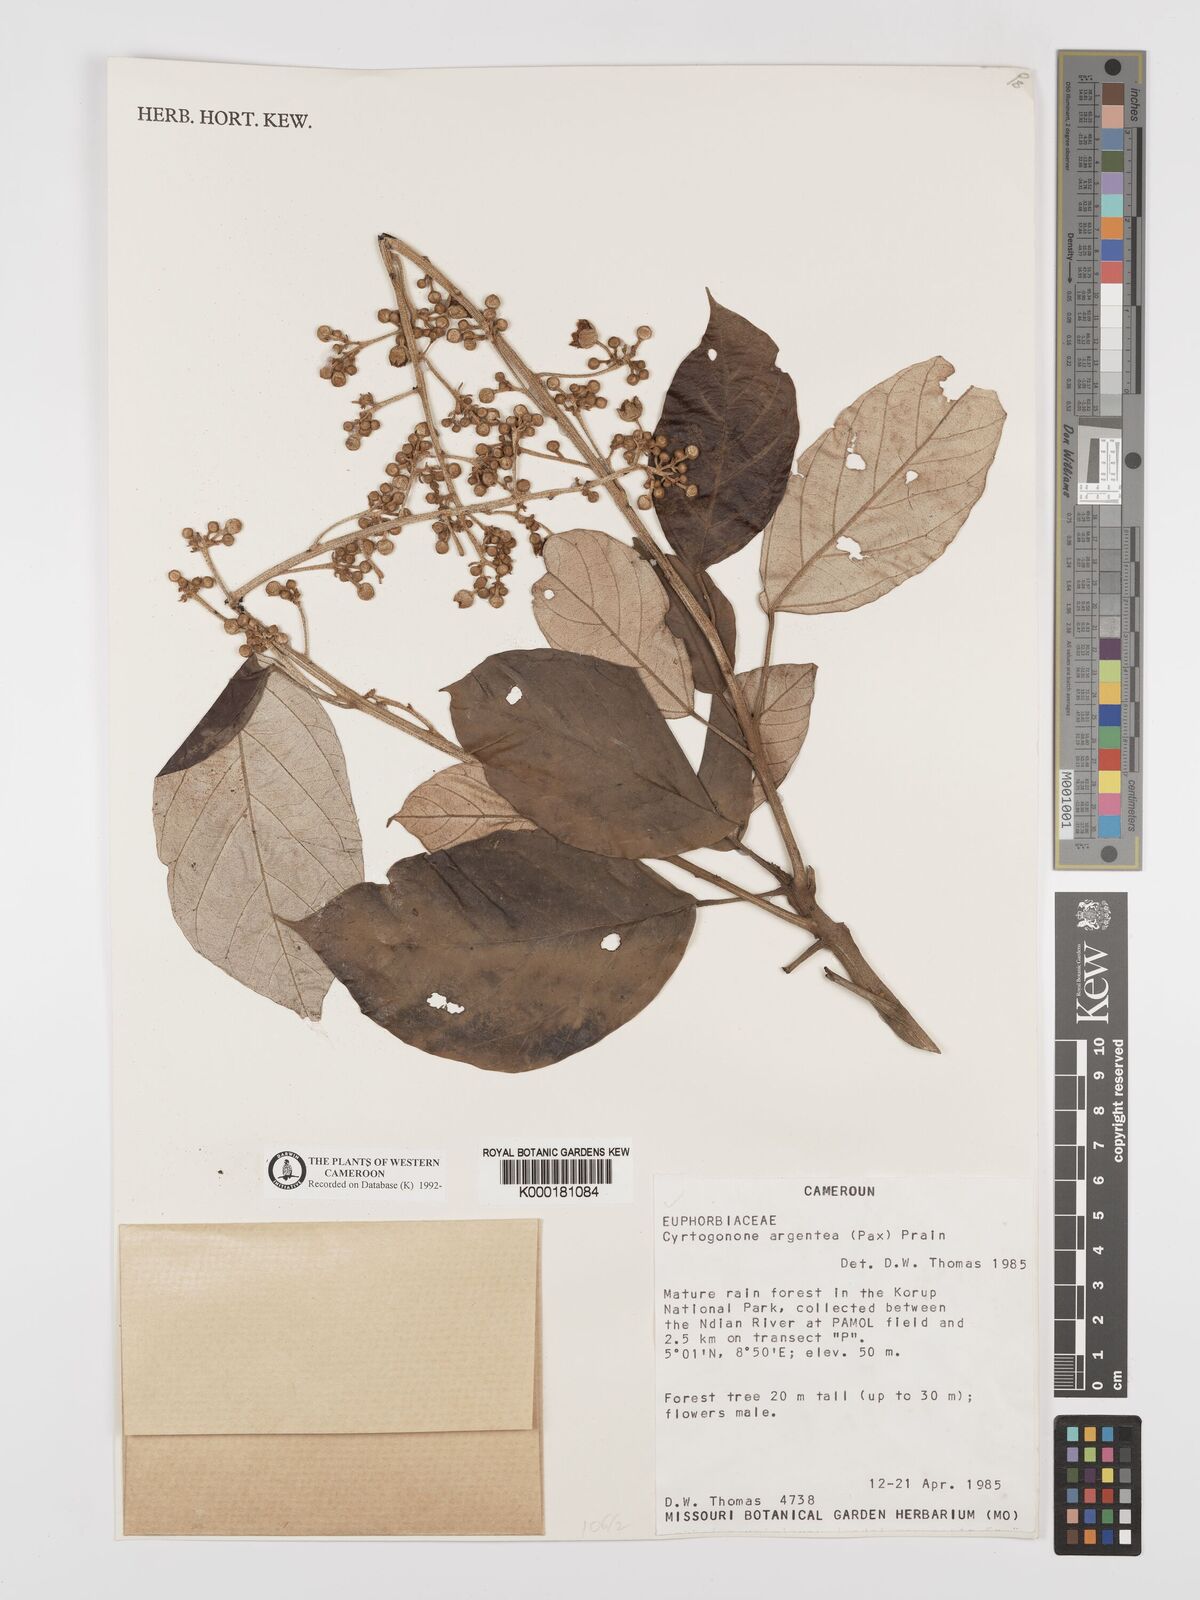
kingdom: Plantae
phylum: Tracheophyta
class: Magnoliopsida
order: Malpighiales
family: Euphorbiaceae
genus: Cyrtogonone
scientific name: Cyrtogonone argentea
